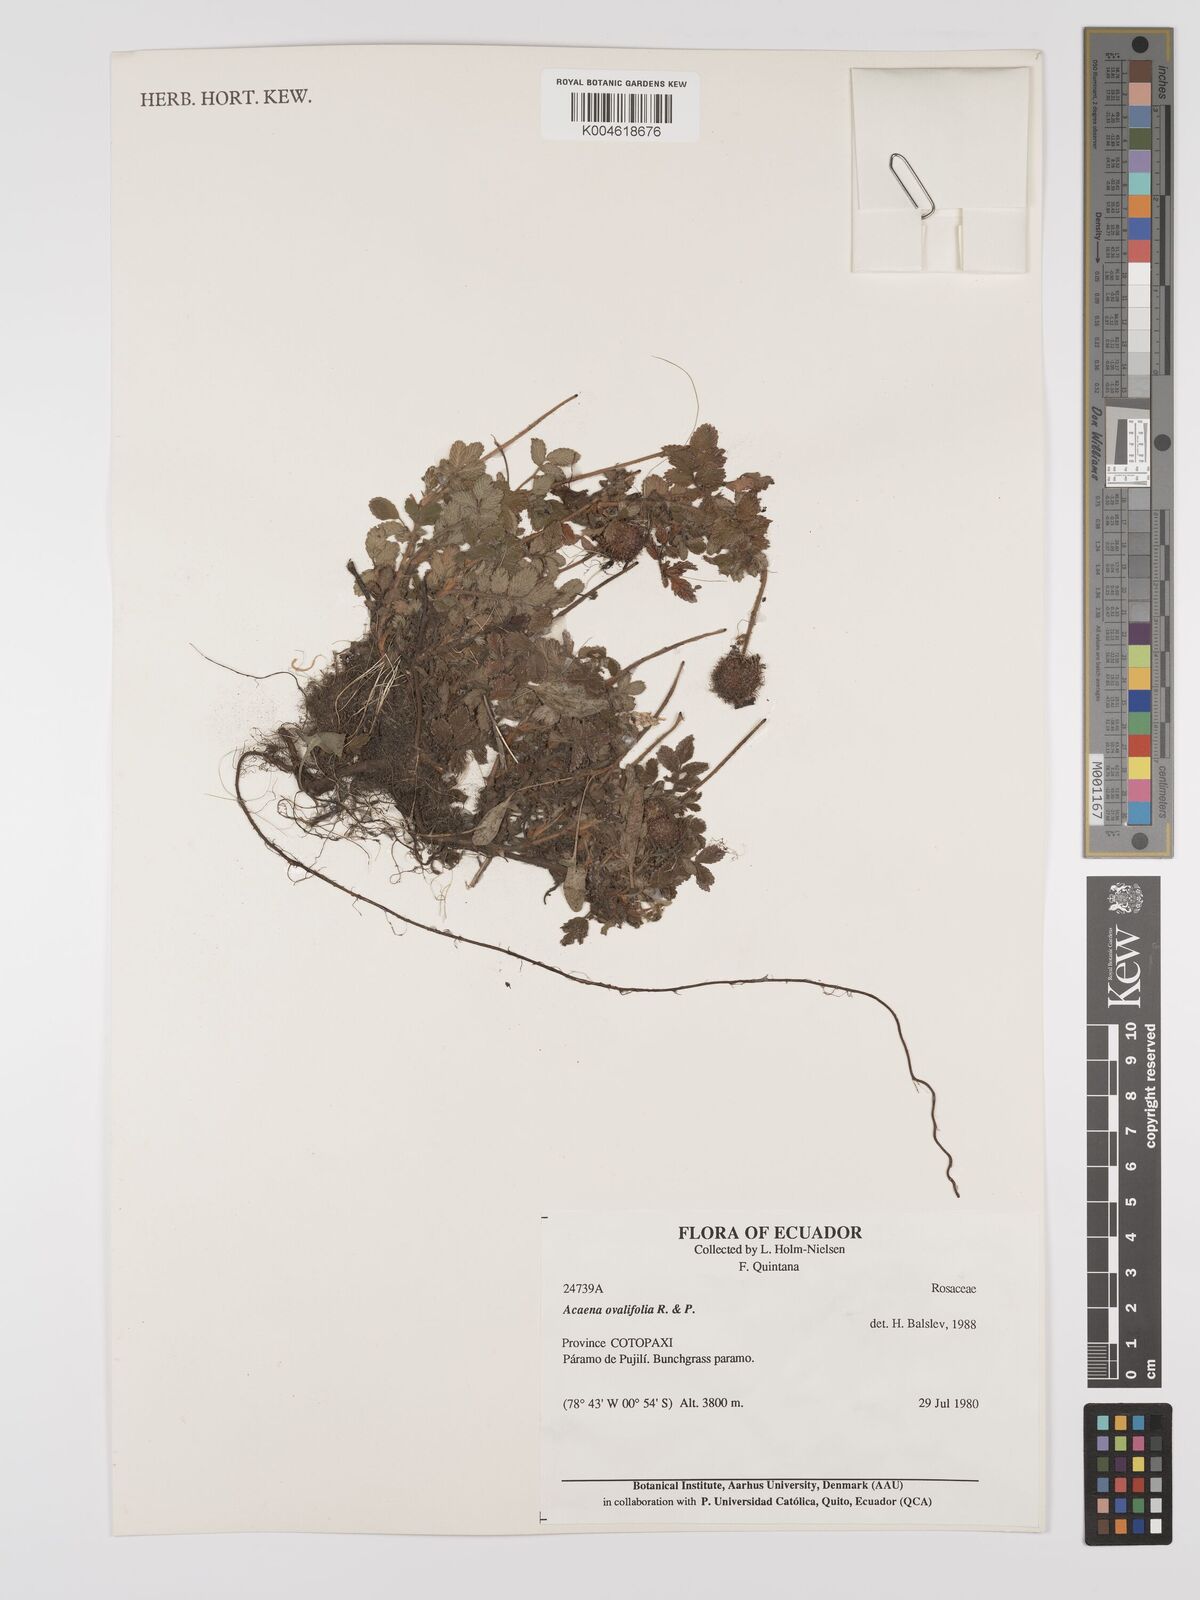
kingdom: Plantae
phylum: Tracheophyta
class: Magnoliopsida
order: Rosales
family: Rosaceae
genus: Acaena
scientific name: Acaena ovalifolia
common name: Two-spined acaena
